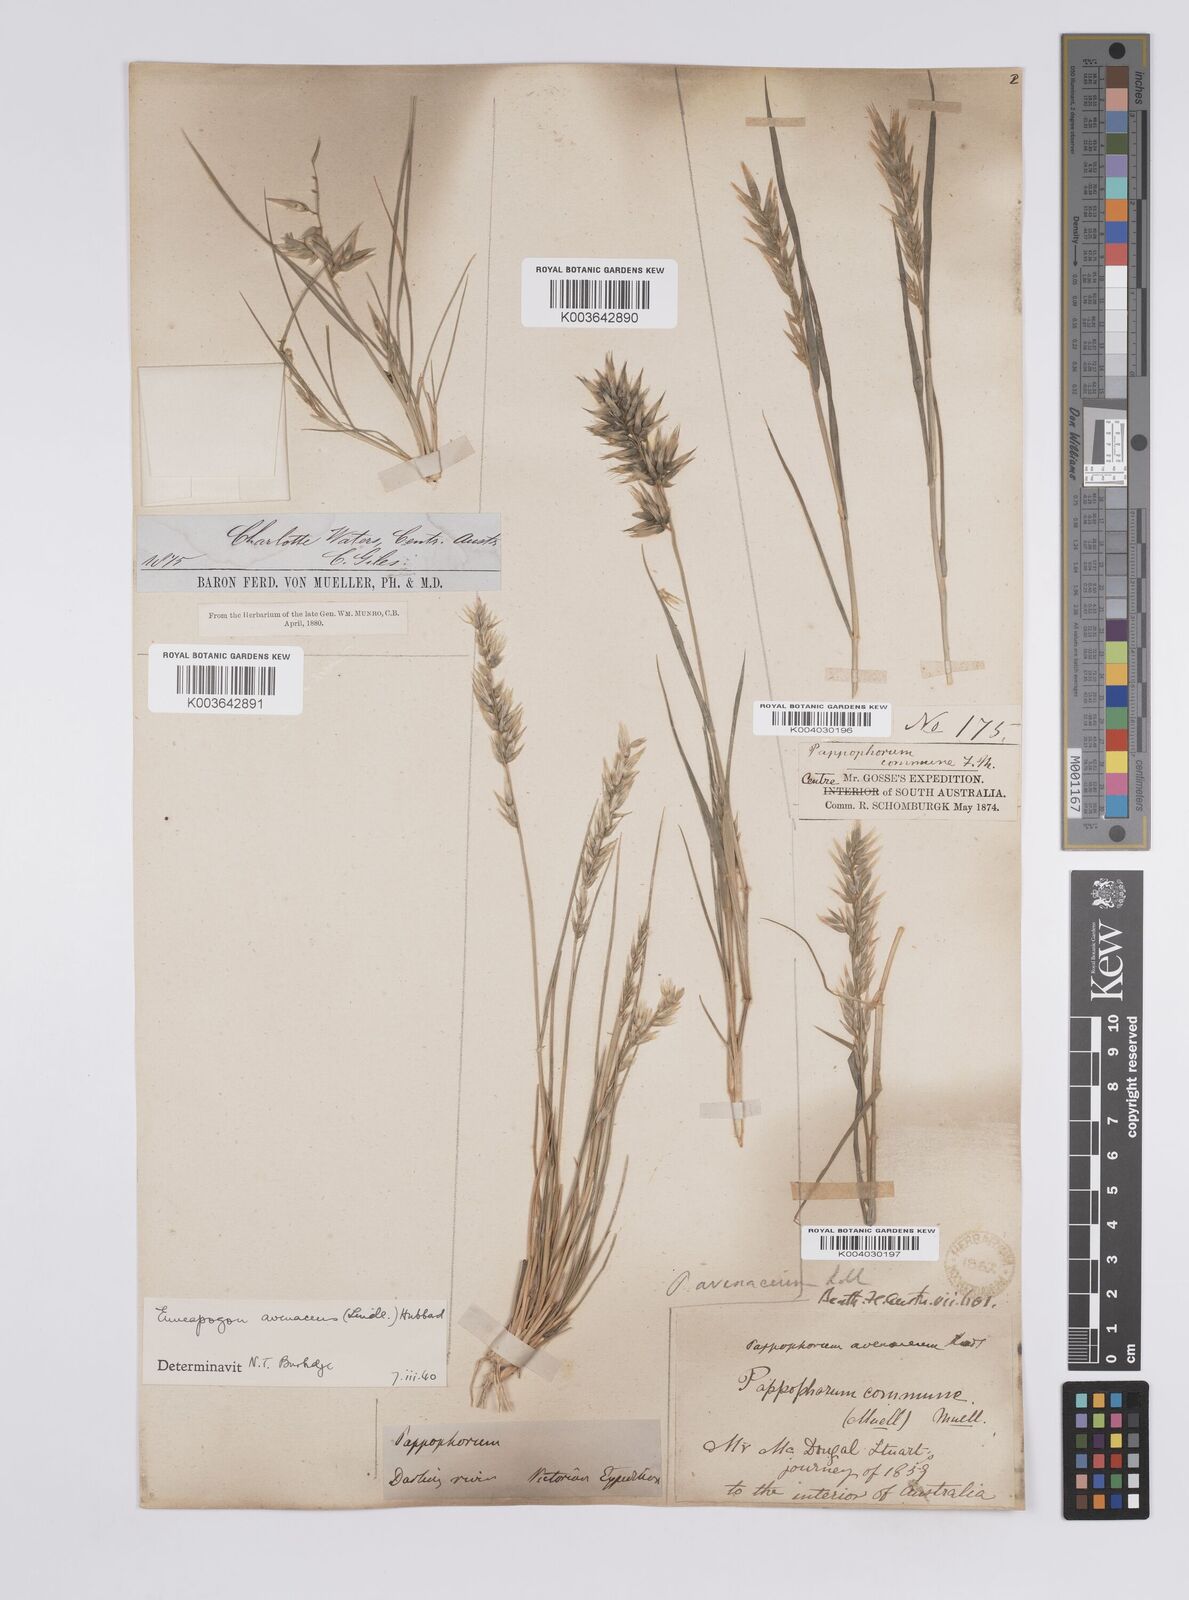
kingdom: Plantae
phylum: Tracheophyta
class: Liliopsida
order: Poales
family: Poaceae
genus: Enneapogon
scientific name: Enneapogon avenaceus
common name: Hairy oat grass
